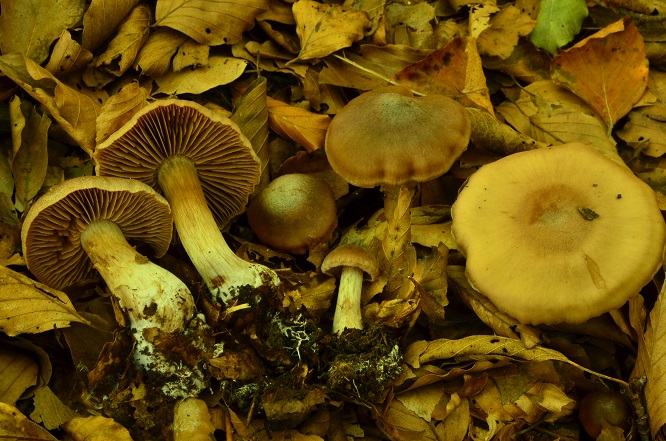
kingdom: Fungi
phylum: Basidiomycota
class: Agaricomycetes
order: Agaricales
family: Cortinariaceae
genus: Cortinarius
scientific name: Cortinarius suboxytoneus
